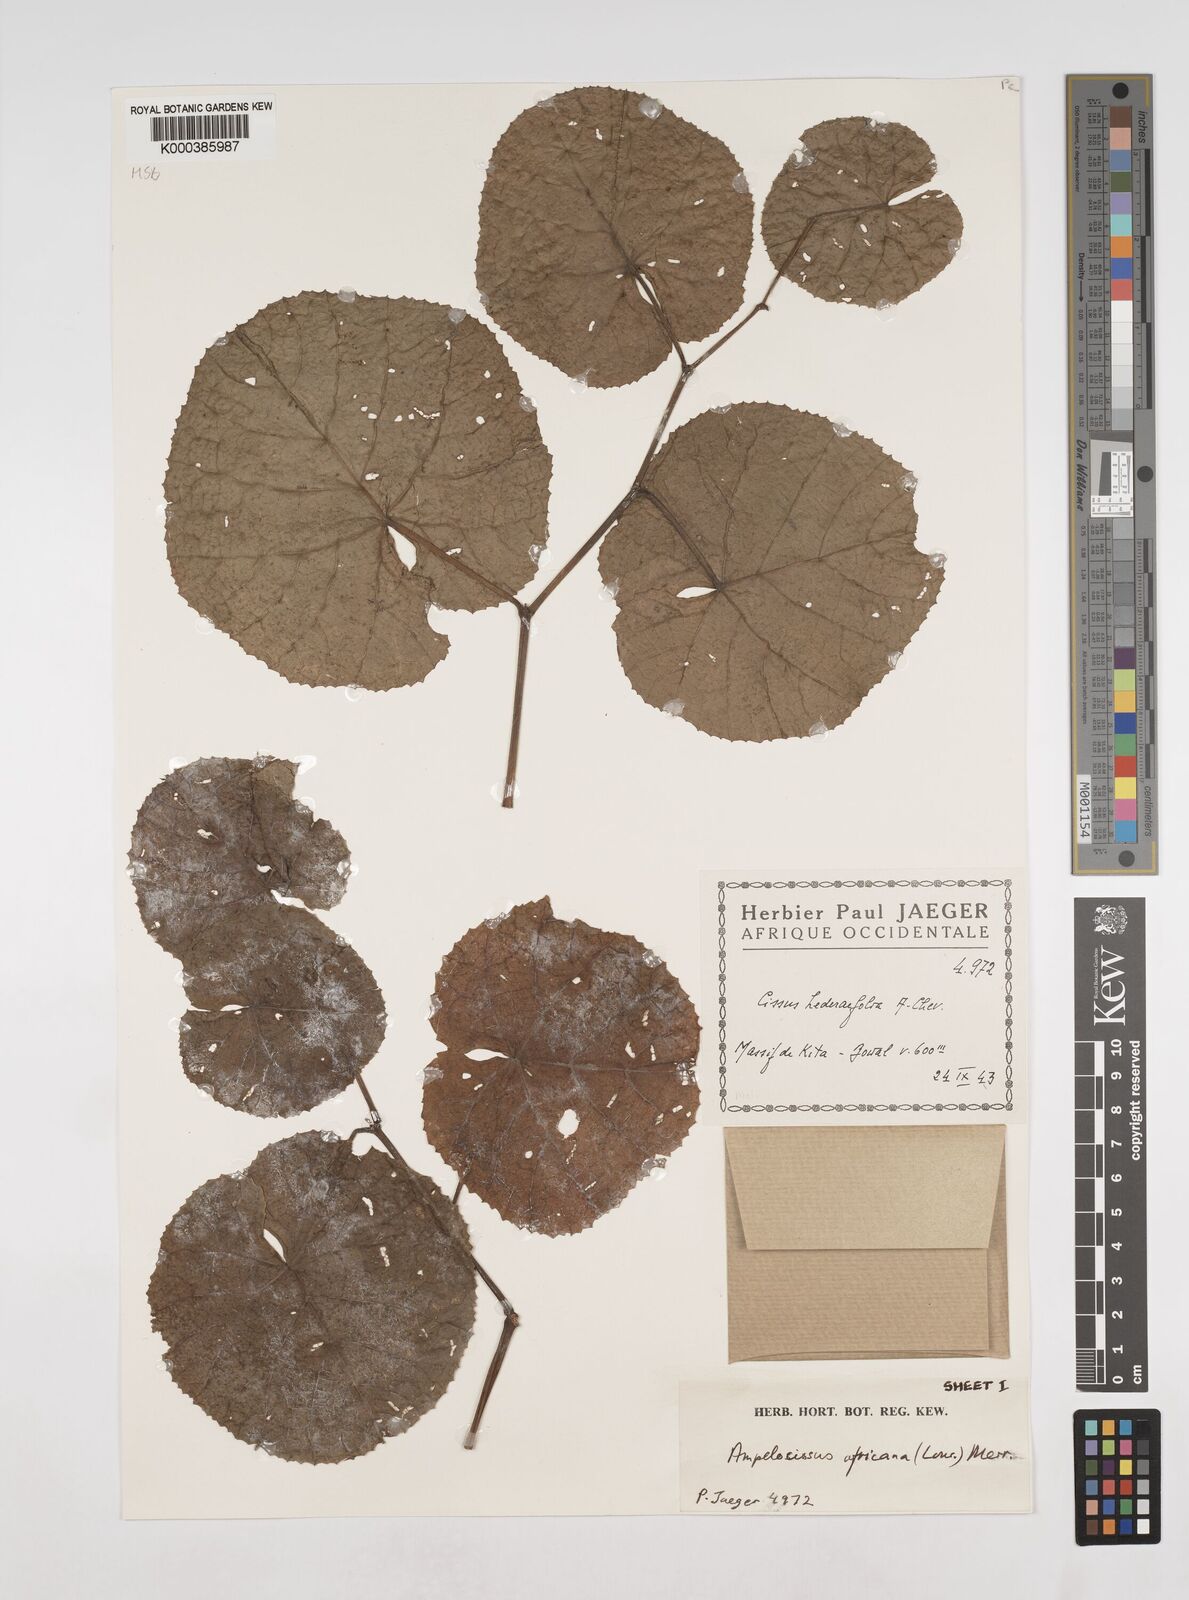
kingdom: Plantae
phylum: Tracheophyta
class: Magnoliopsida
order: Vitales
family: Vitaceae
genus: Ampelocissus
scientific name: Ampelocissus africana
